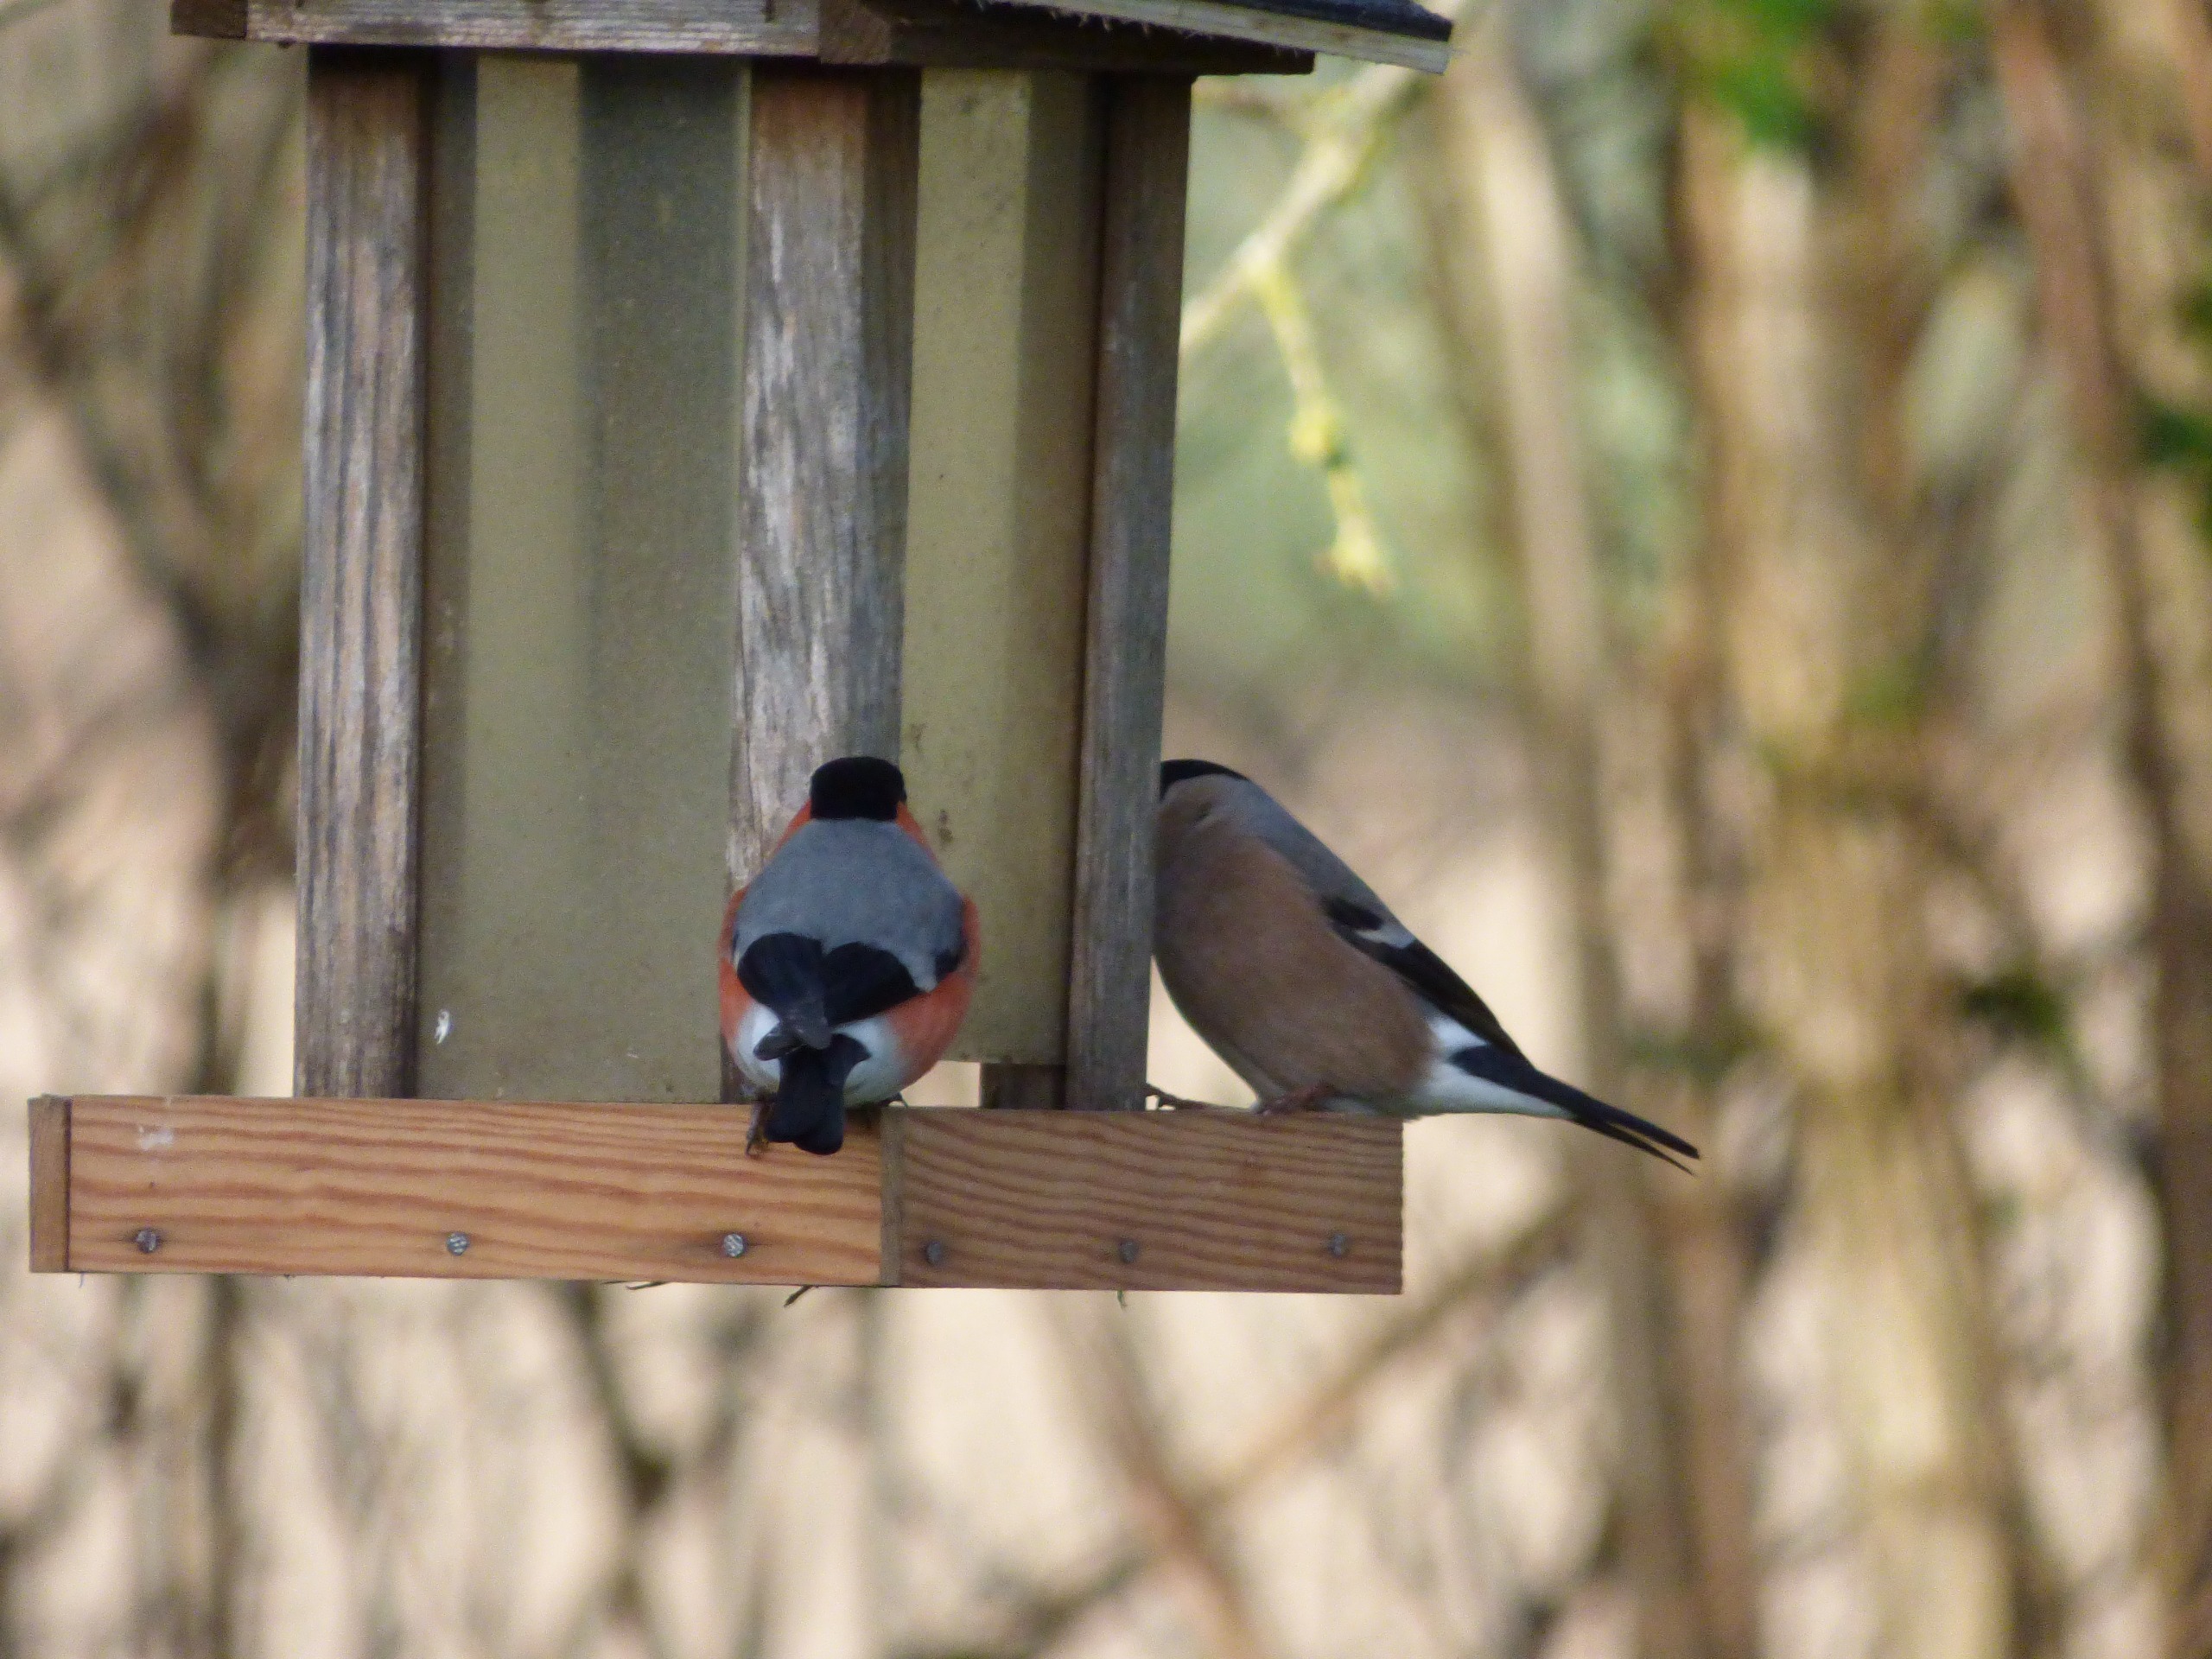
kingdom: Animalia
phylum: Chordata
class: Aves
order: Passeriformes
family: Fringillidae
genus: Pyrrhula
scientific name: Pyrrhula pyrrhula
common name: Dompap
